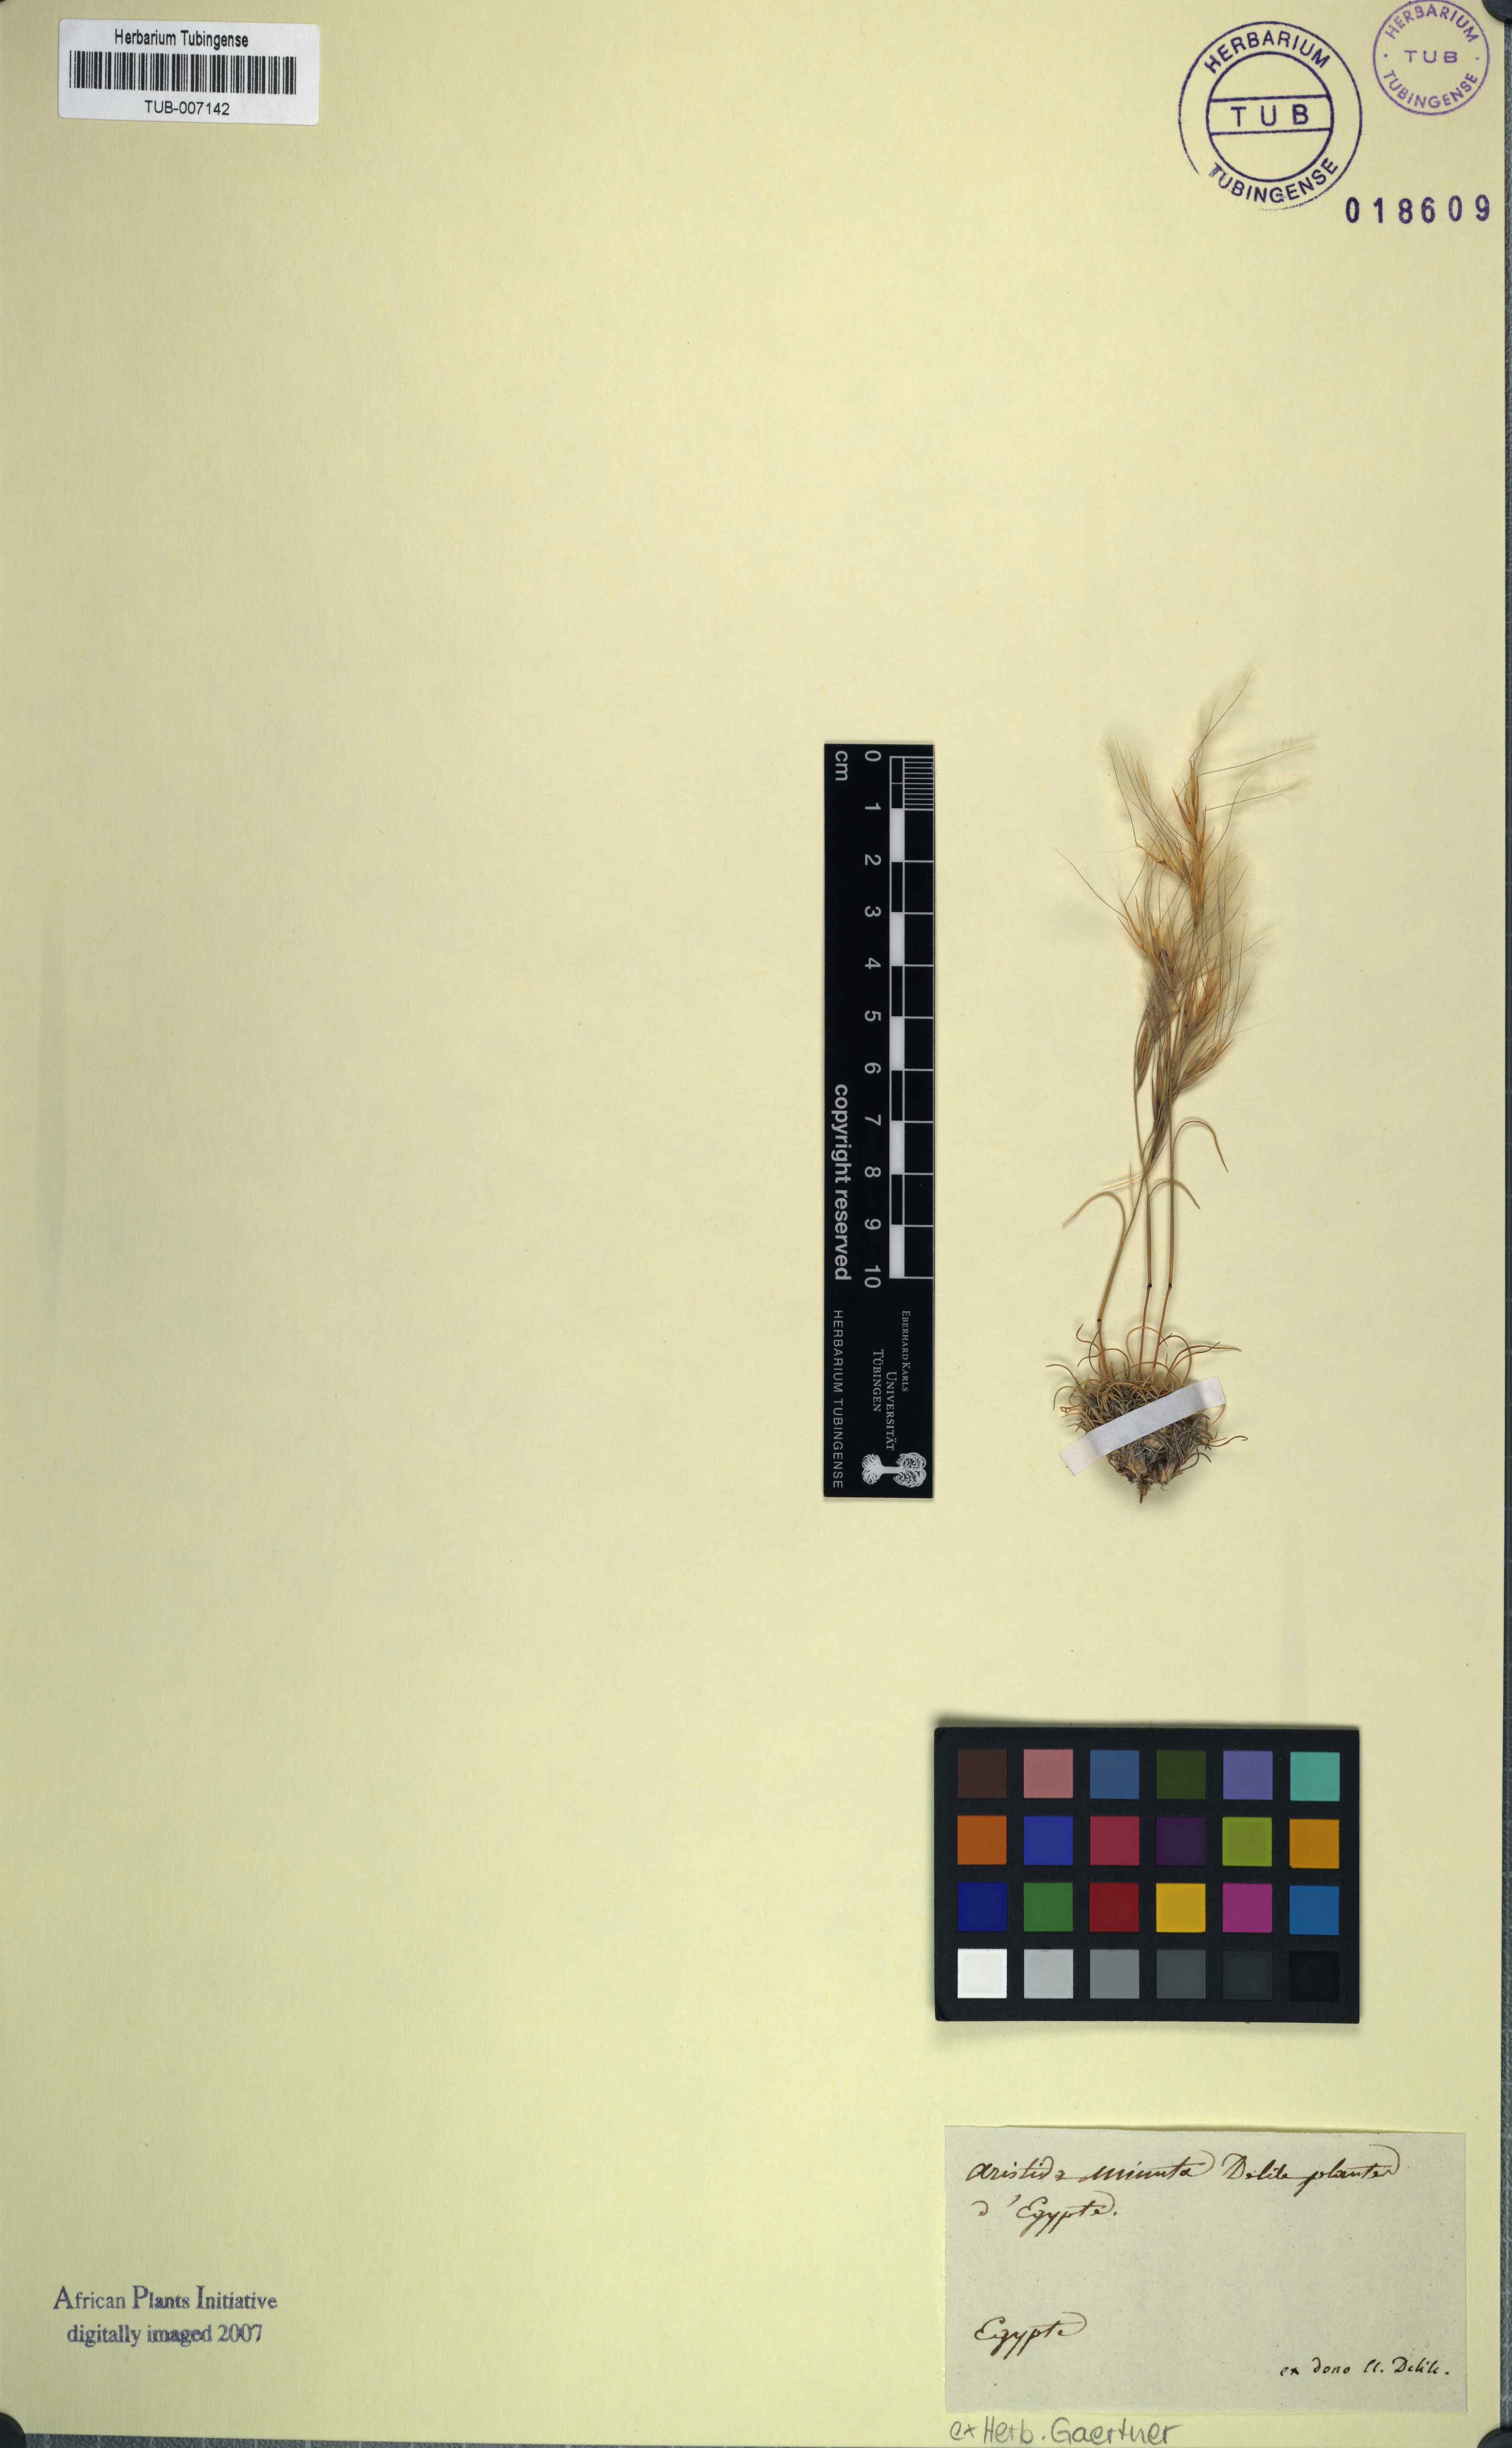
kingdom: Plantae
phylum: Tracheophyta
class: Liliopsida
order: Poales
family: Poaceae
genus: Bouteloua
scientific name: Bouteloua curtipendula
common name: Side-oats grama
